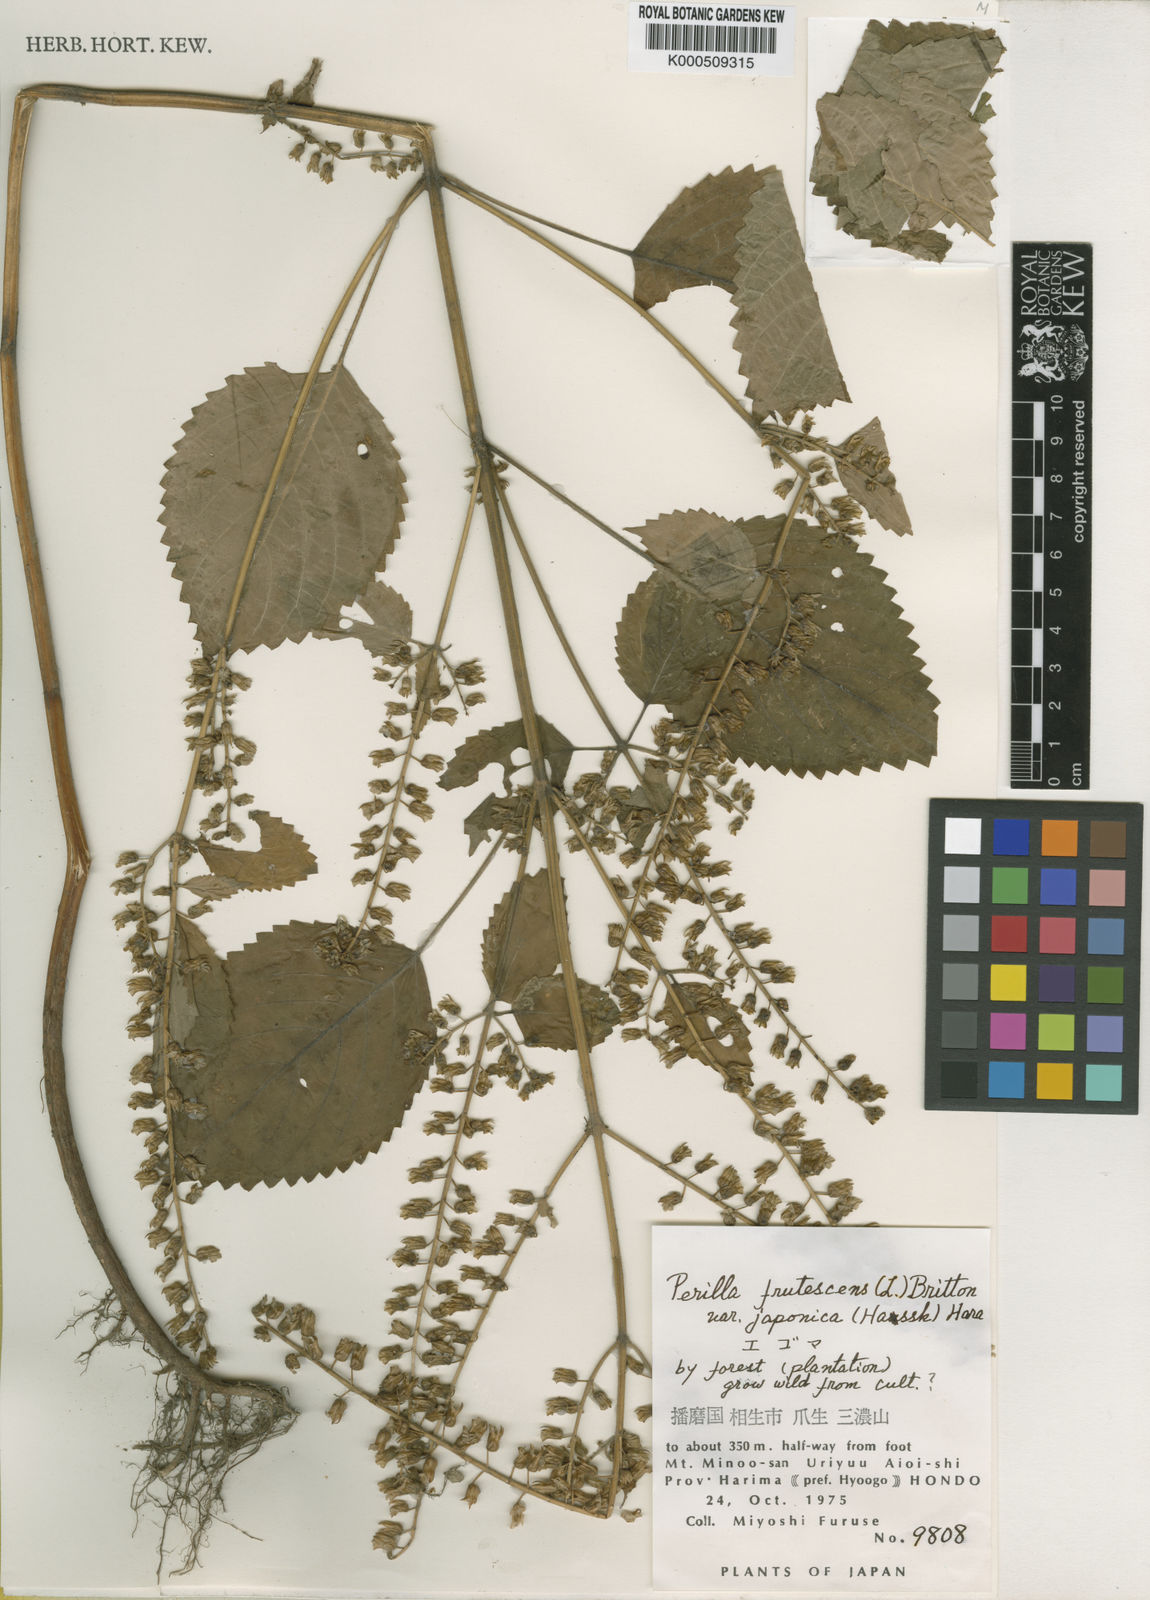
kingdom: Plantae
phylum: Tracheophyta
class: Magnoliopsida
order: Lamiales
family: Lamiaceae
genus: Perilla
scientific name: Perilla frutescens
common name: Perilla
